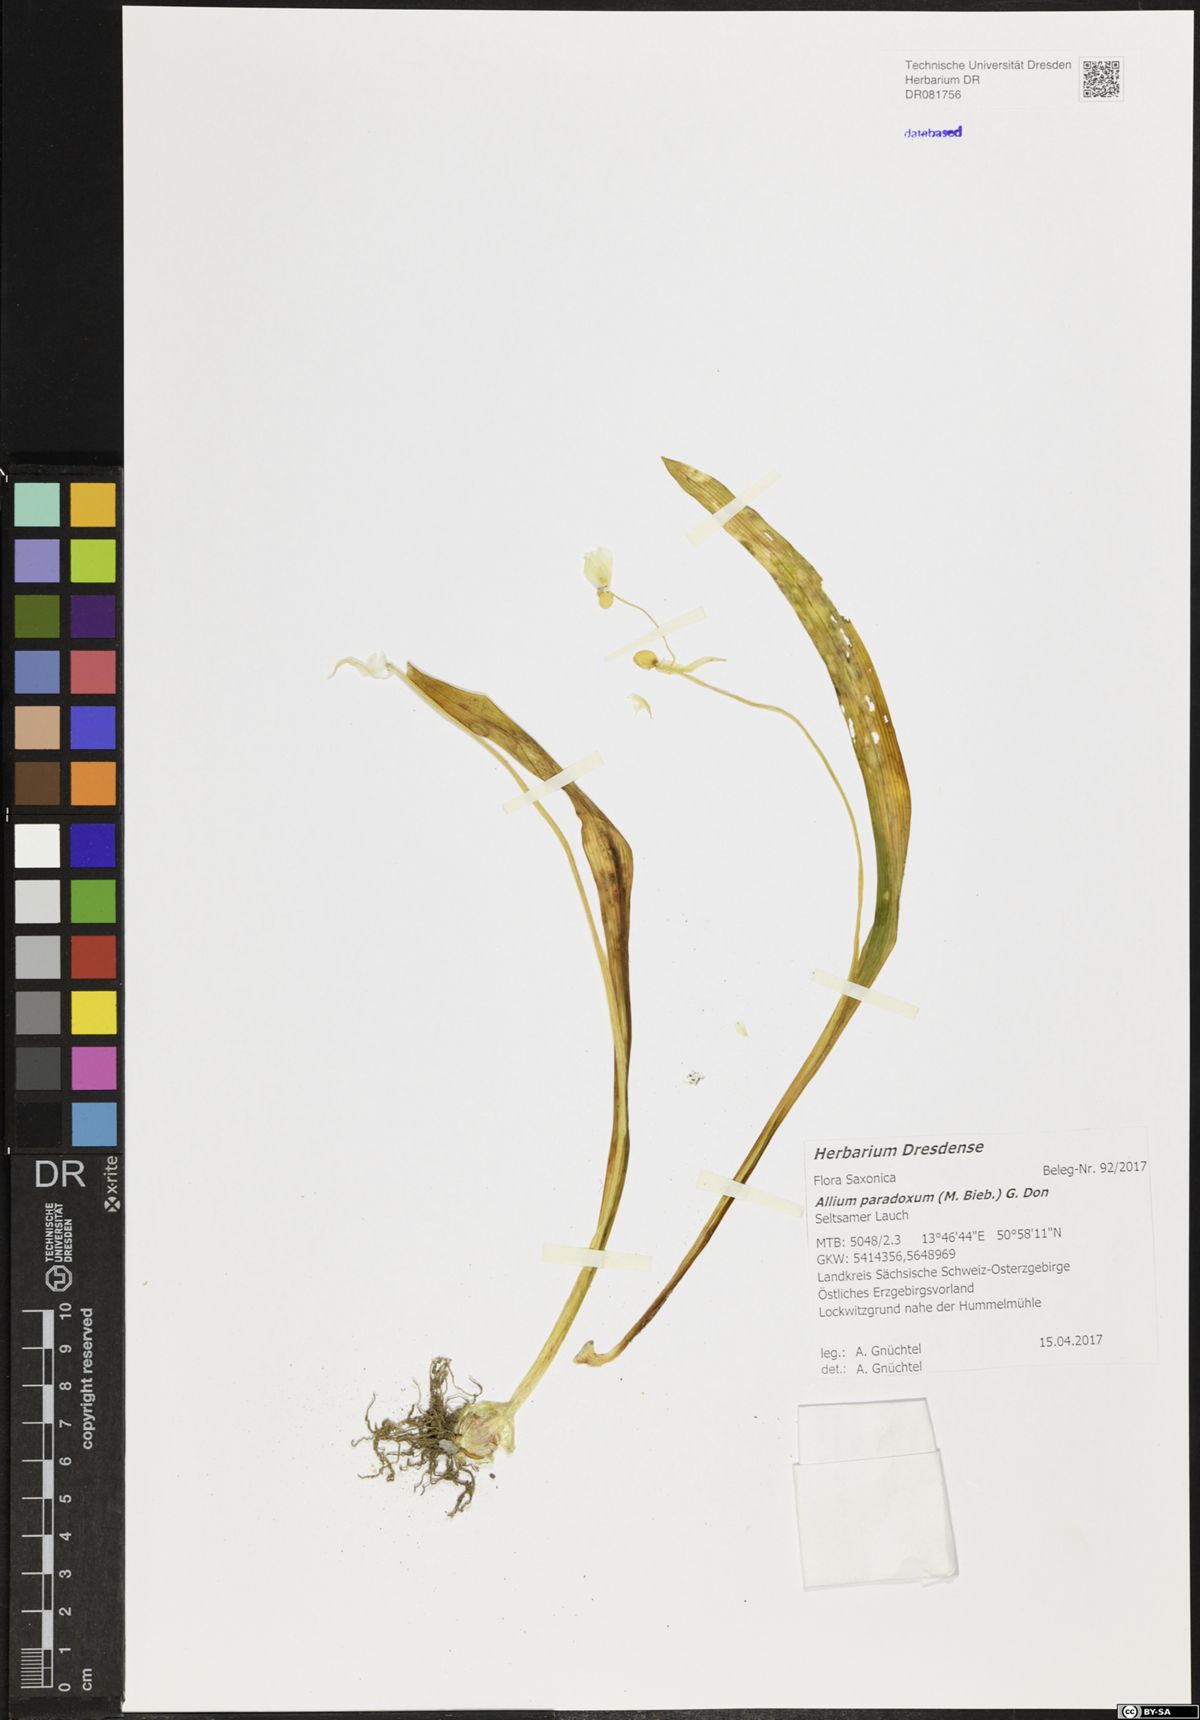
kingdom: Plantae
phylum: Tracheophyta
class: Liliopsida
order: Asparagales
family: Amaryllidaceae
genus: Allium
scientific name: Allium paradoxum
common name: Few-flowered garlic
